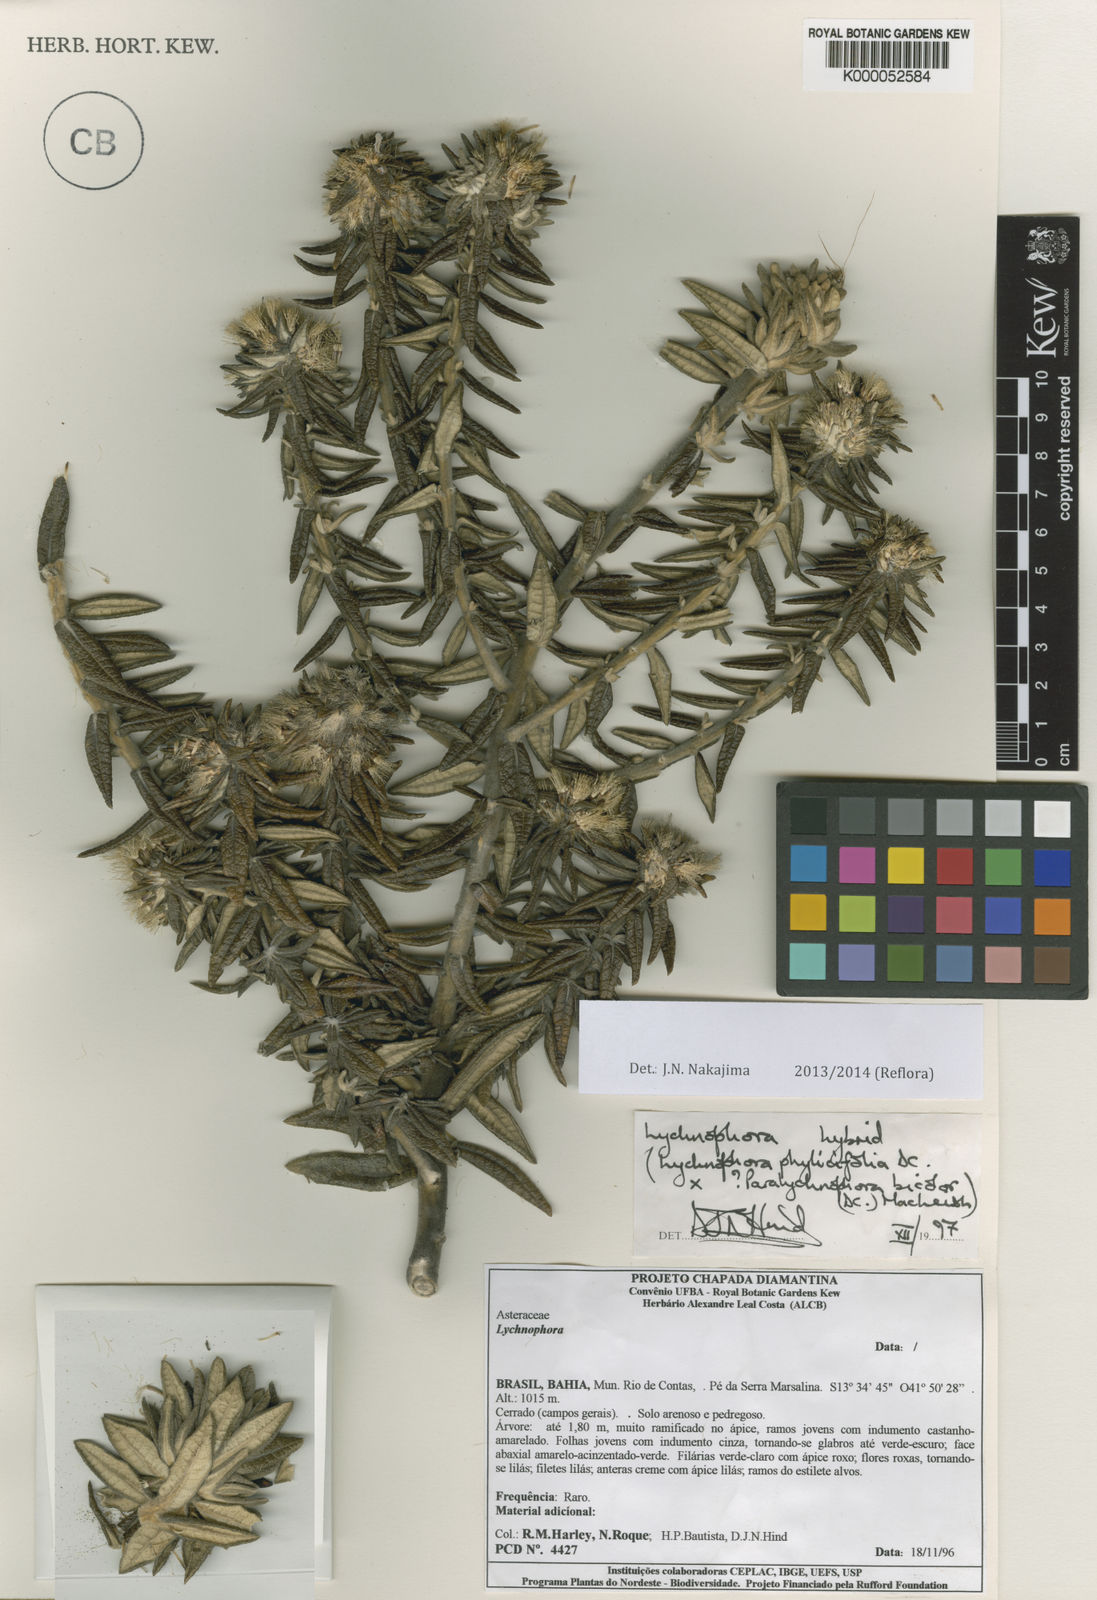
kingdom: Plantae
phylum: Tracheophyta
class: Magnoliopsida
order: Asterales
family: Asteraceae
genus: Lychnophora
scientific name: Lychnophora
